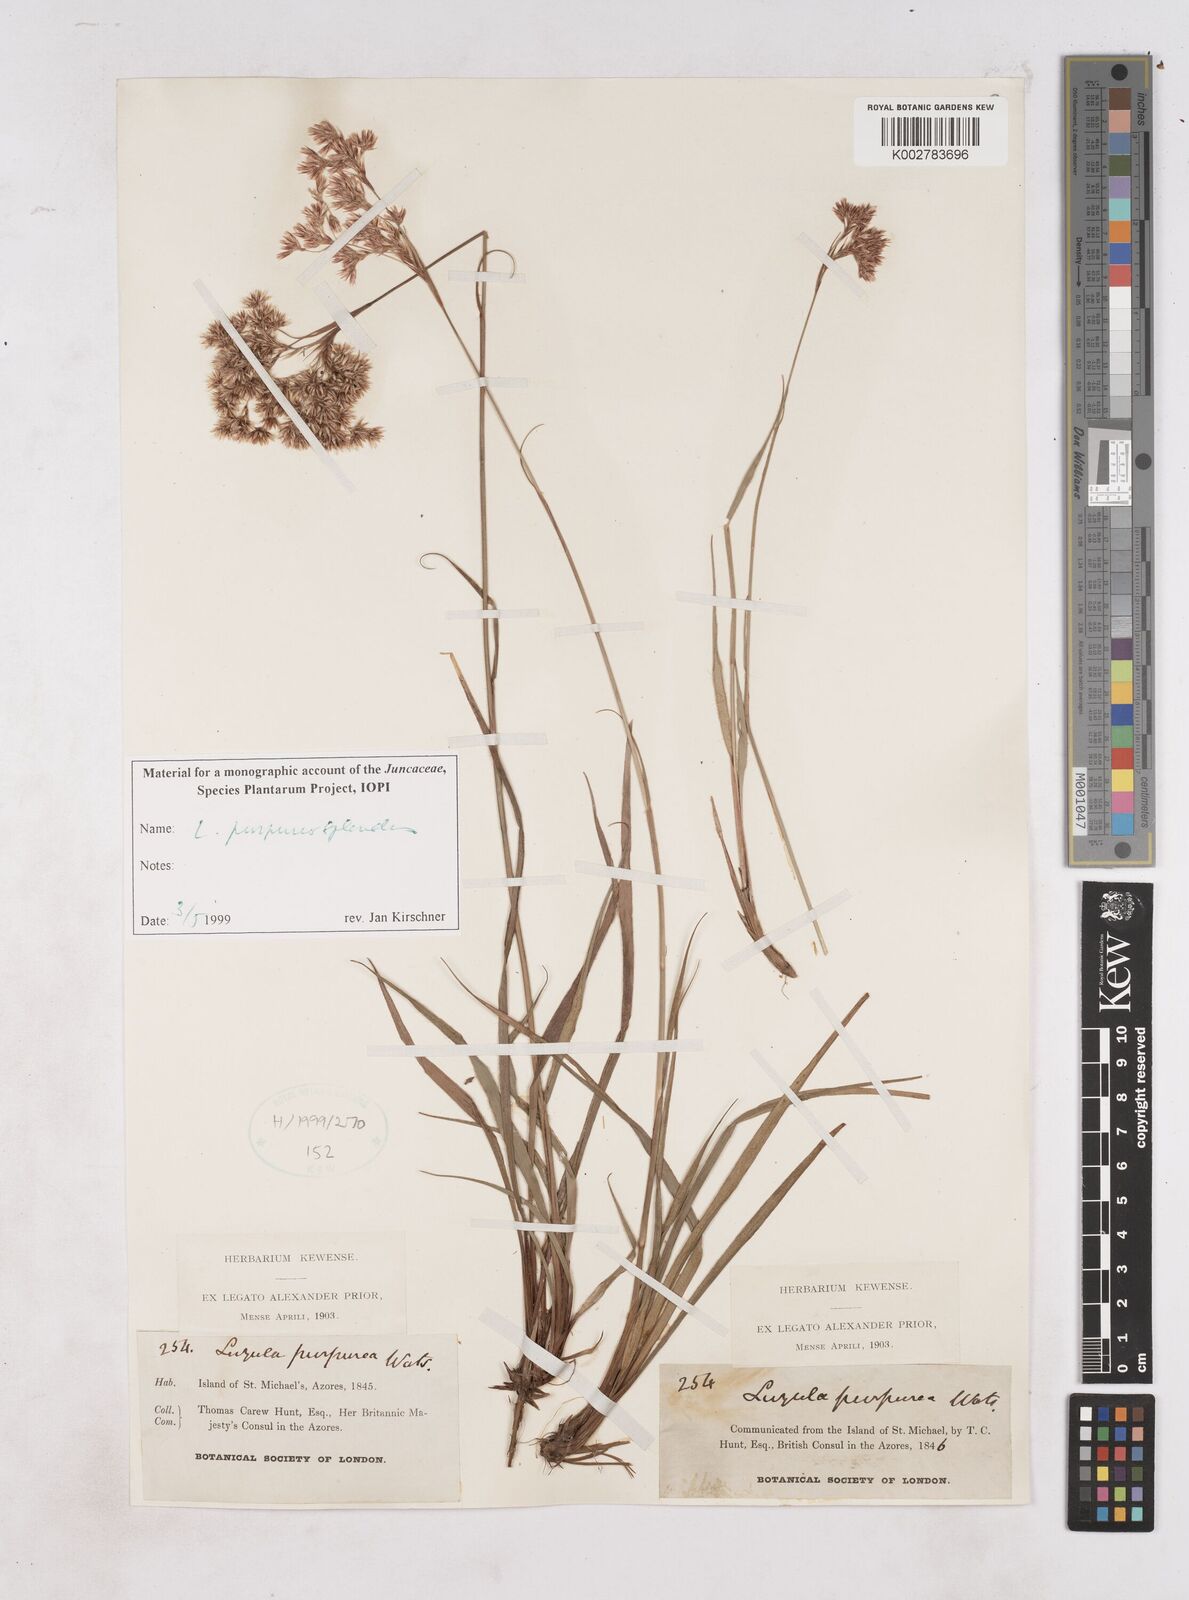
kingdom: Plantae
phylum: Tracheophyta
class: Liliopsida
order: Poales
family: Juncaceae
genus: Luzula
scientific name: Luzula purpureosplendens
